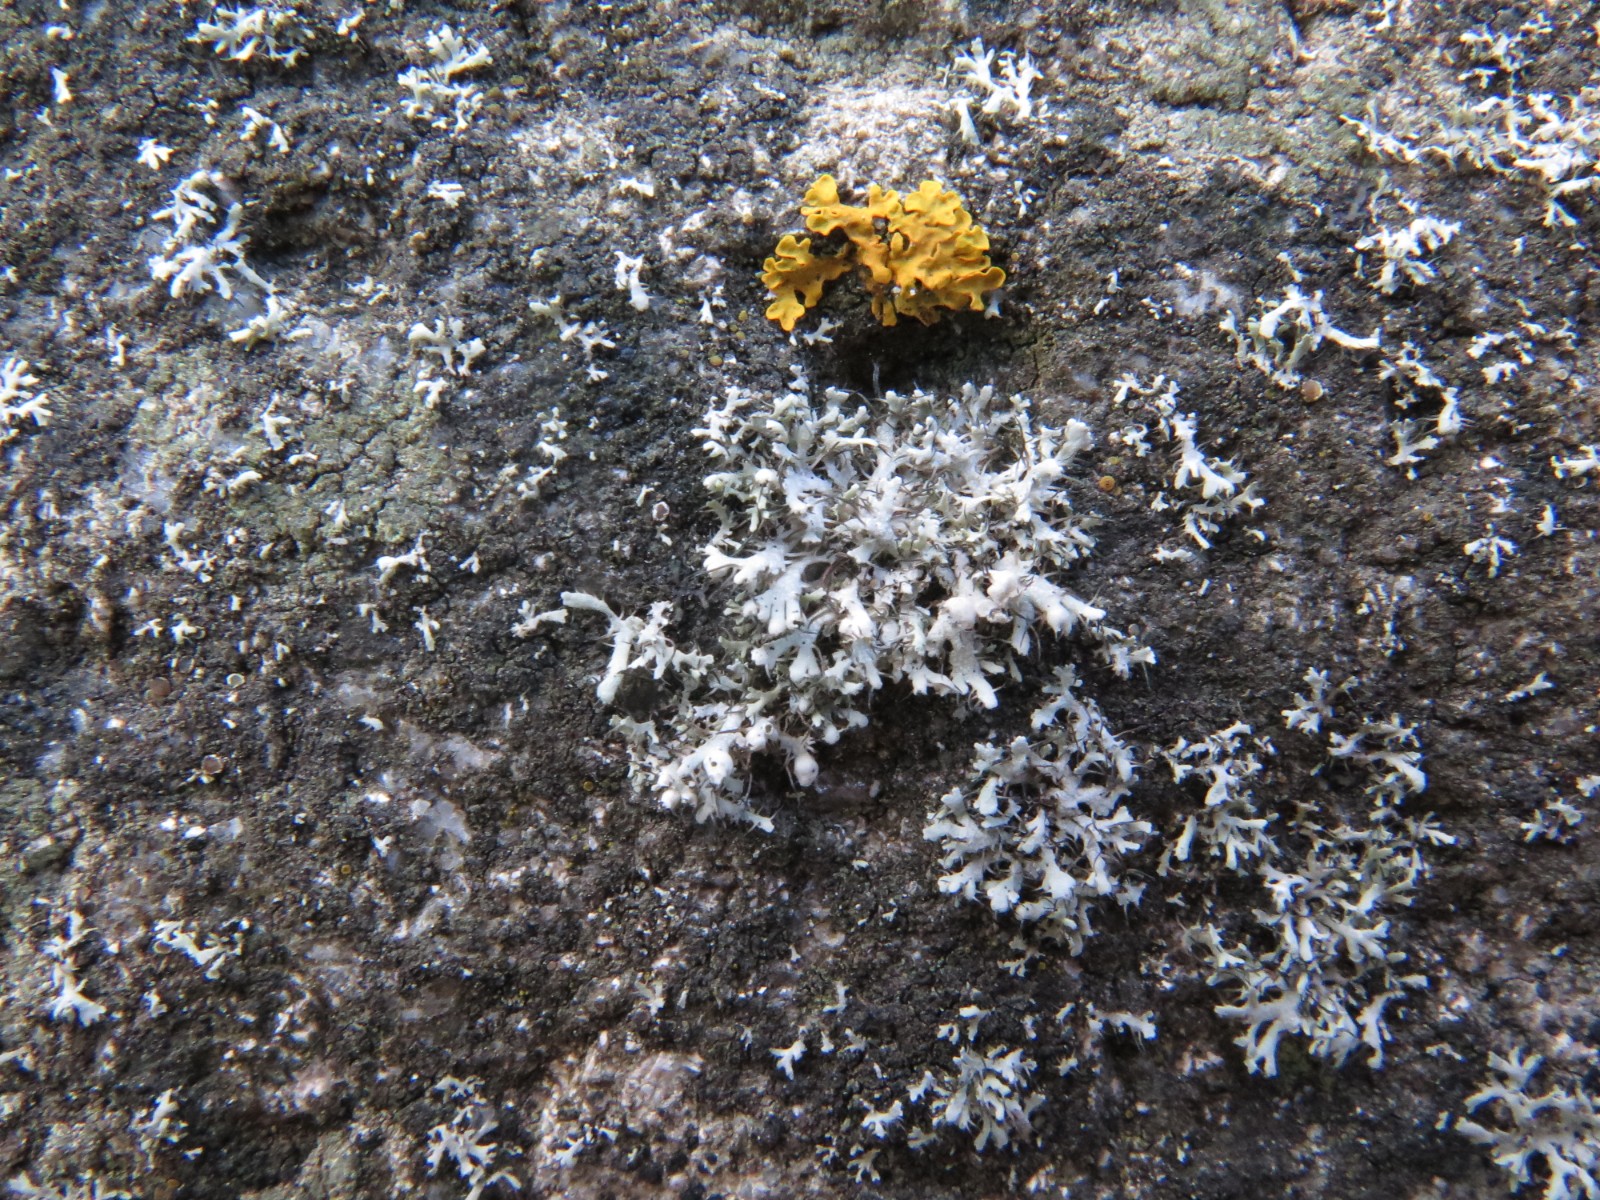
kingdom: Fungi
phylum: Ascomycota
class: Lecanoromycetes
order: Caliciales
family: Physciaceae
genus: Physcia
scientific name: Physcia tenella
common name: spæd rosetlav
